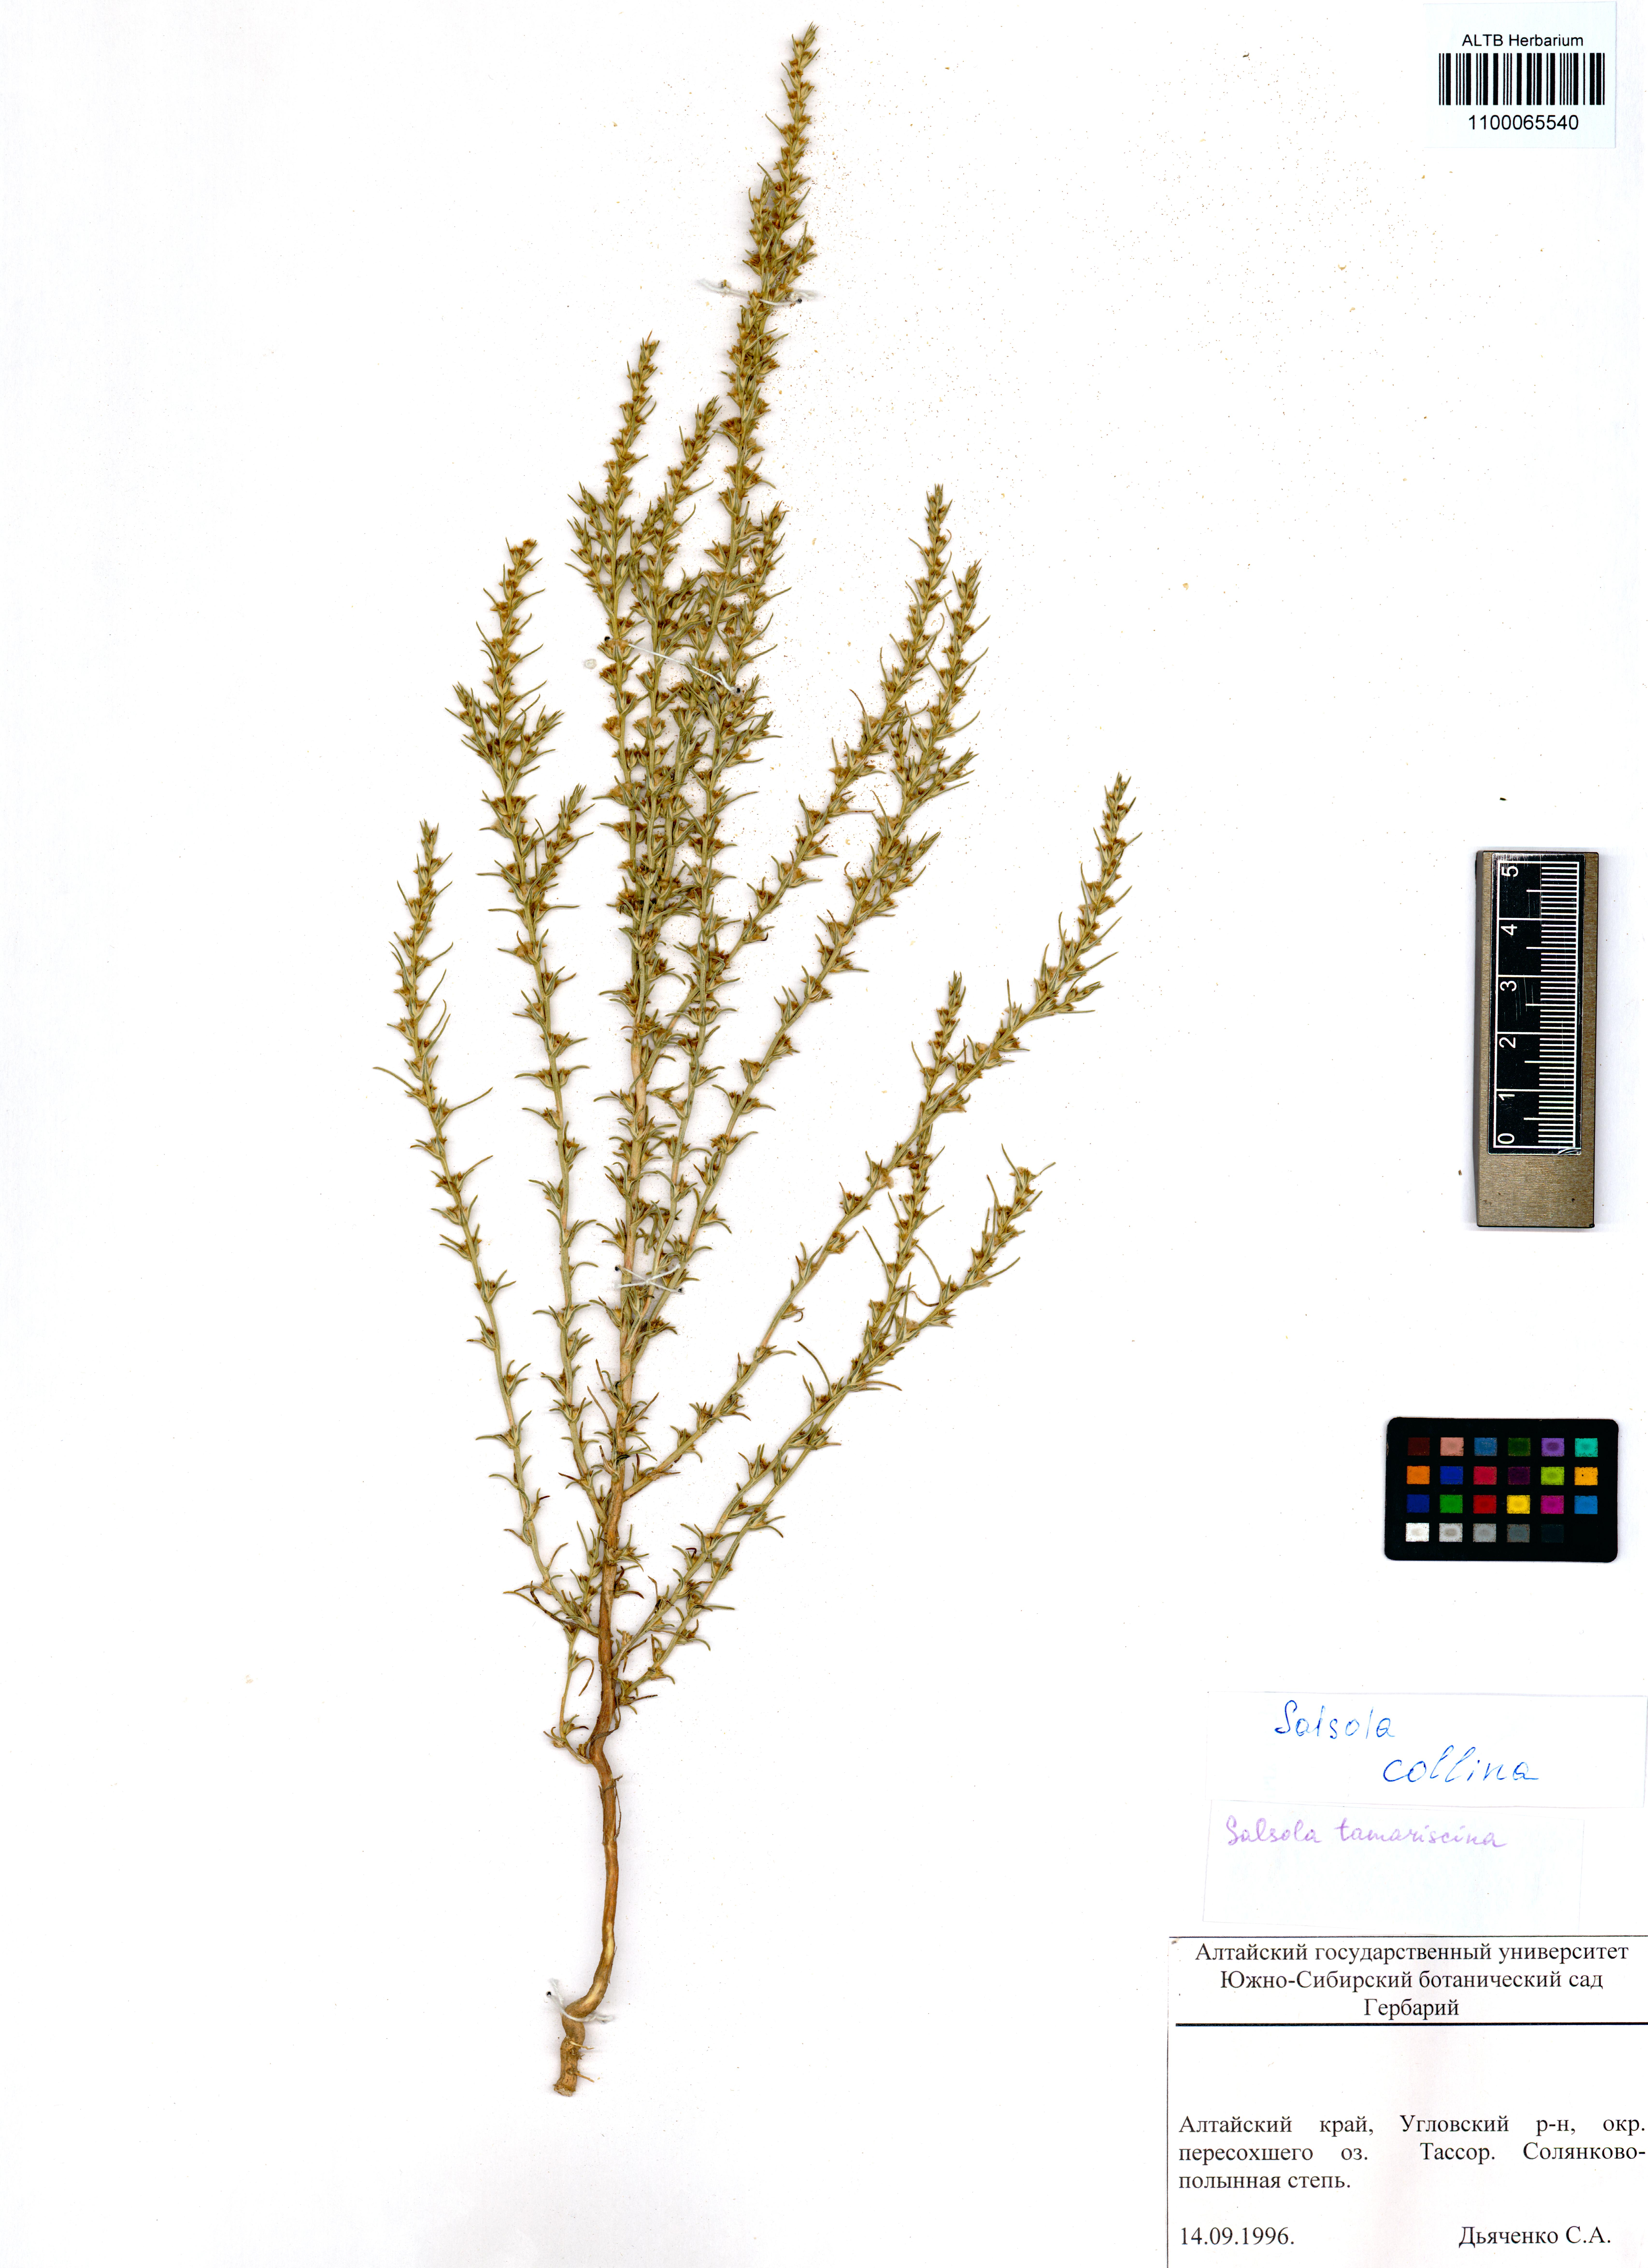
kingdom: Plantae
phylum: Tracheophyta
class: Magnoliopsida
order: Caryophyllales
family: Amaranthaceae
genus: Salsola
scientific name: Salsola collina
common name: Tumbleweed
